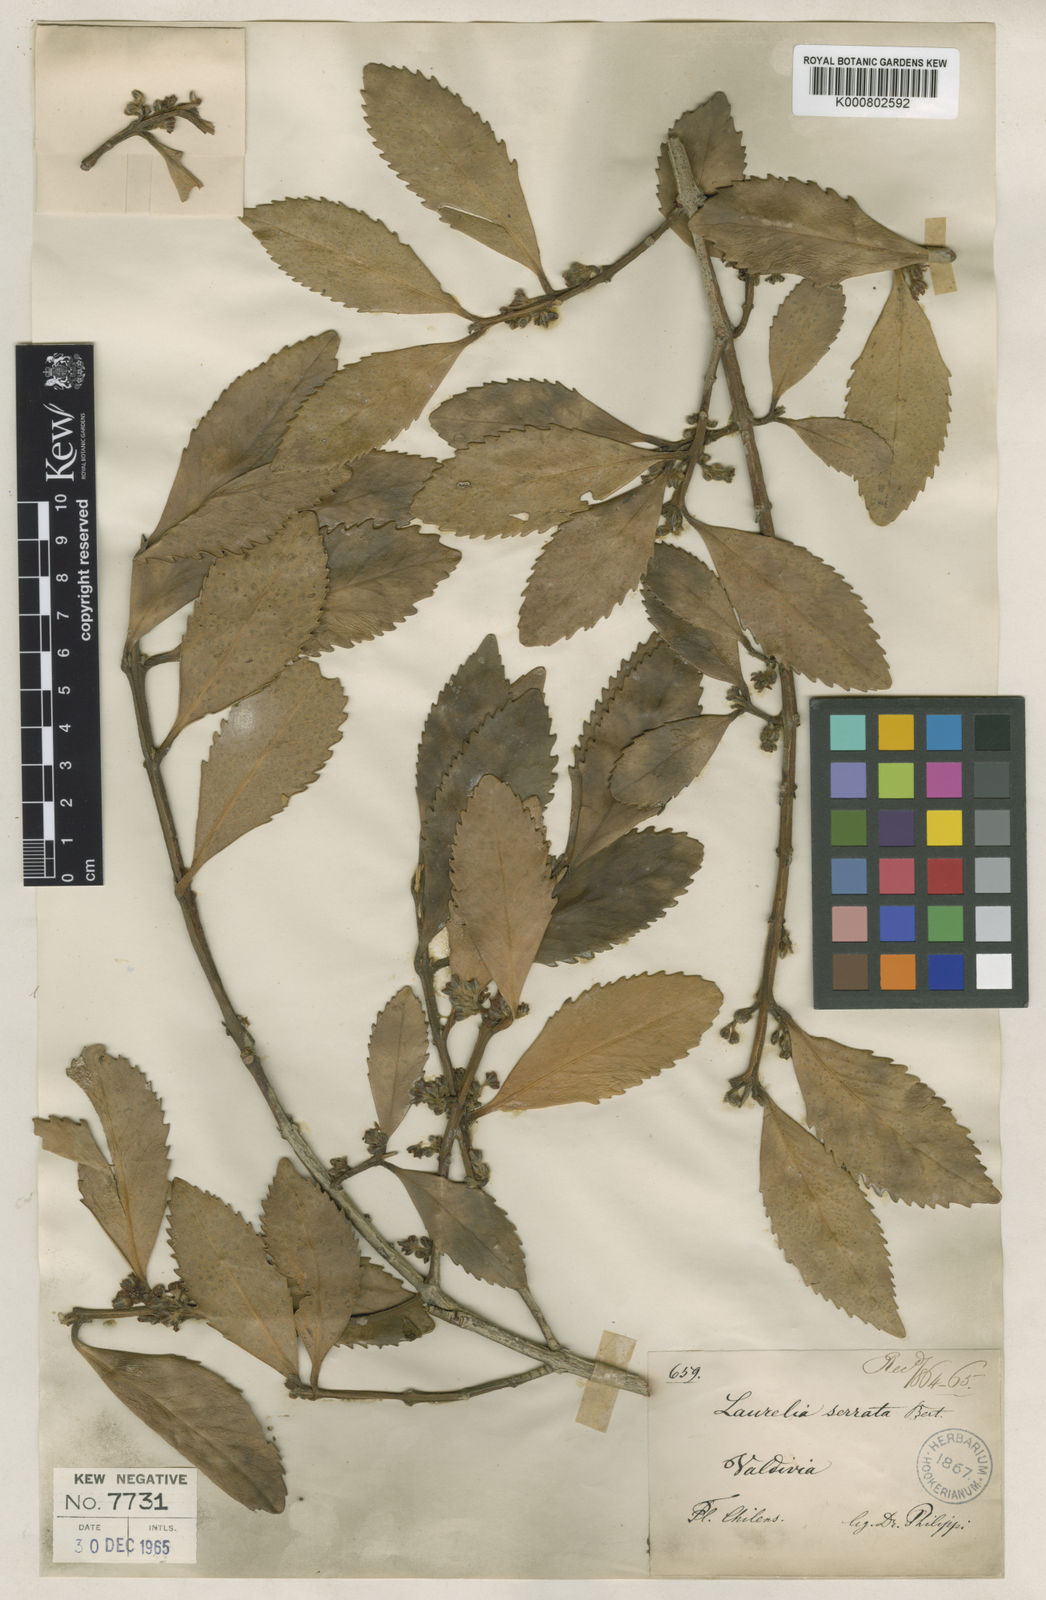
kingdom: Plantae
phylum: Tracheophyta
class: Magnoliopsida
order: Laurales
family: Atherospermataceae
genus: Atherosperma
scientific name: Atherosperma
